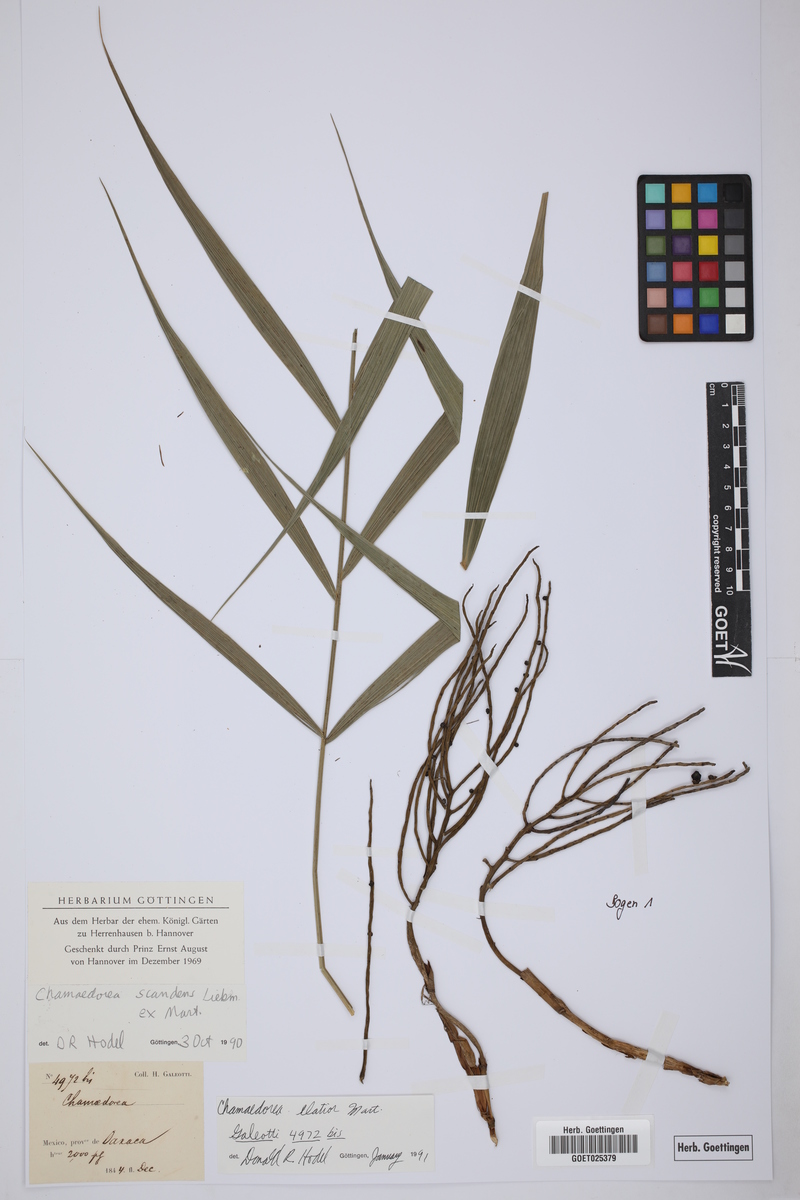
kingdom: Plantae
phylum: Tracheophyta
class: Liliopsida
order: Arecales
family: Arecaceae
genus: Chamaedorea
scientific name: Chamaedorea elatior
